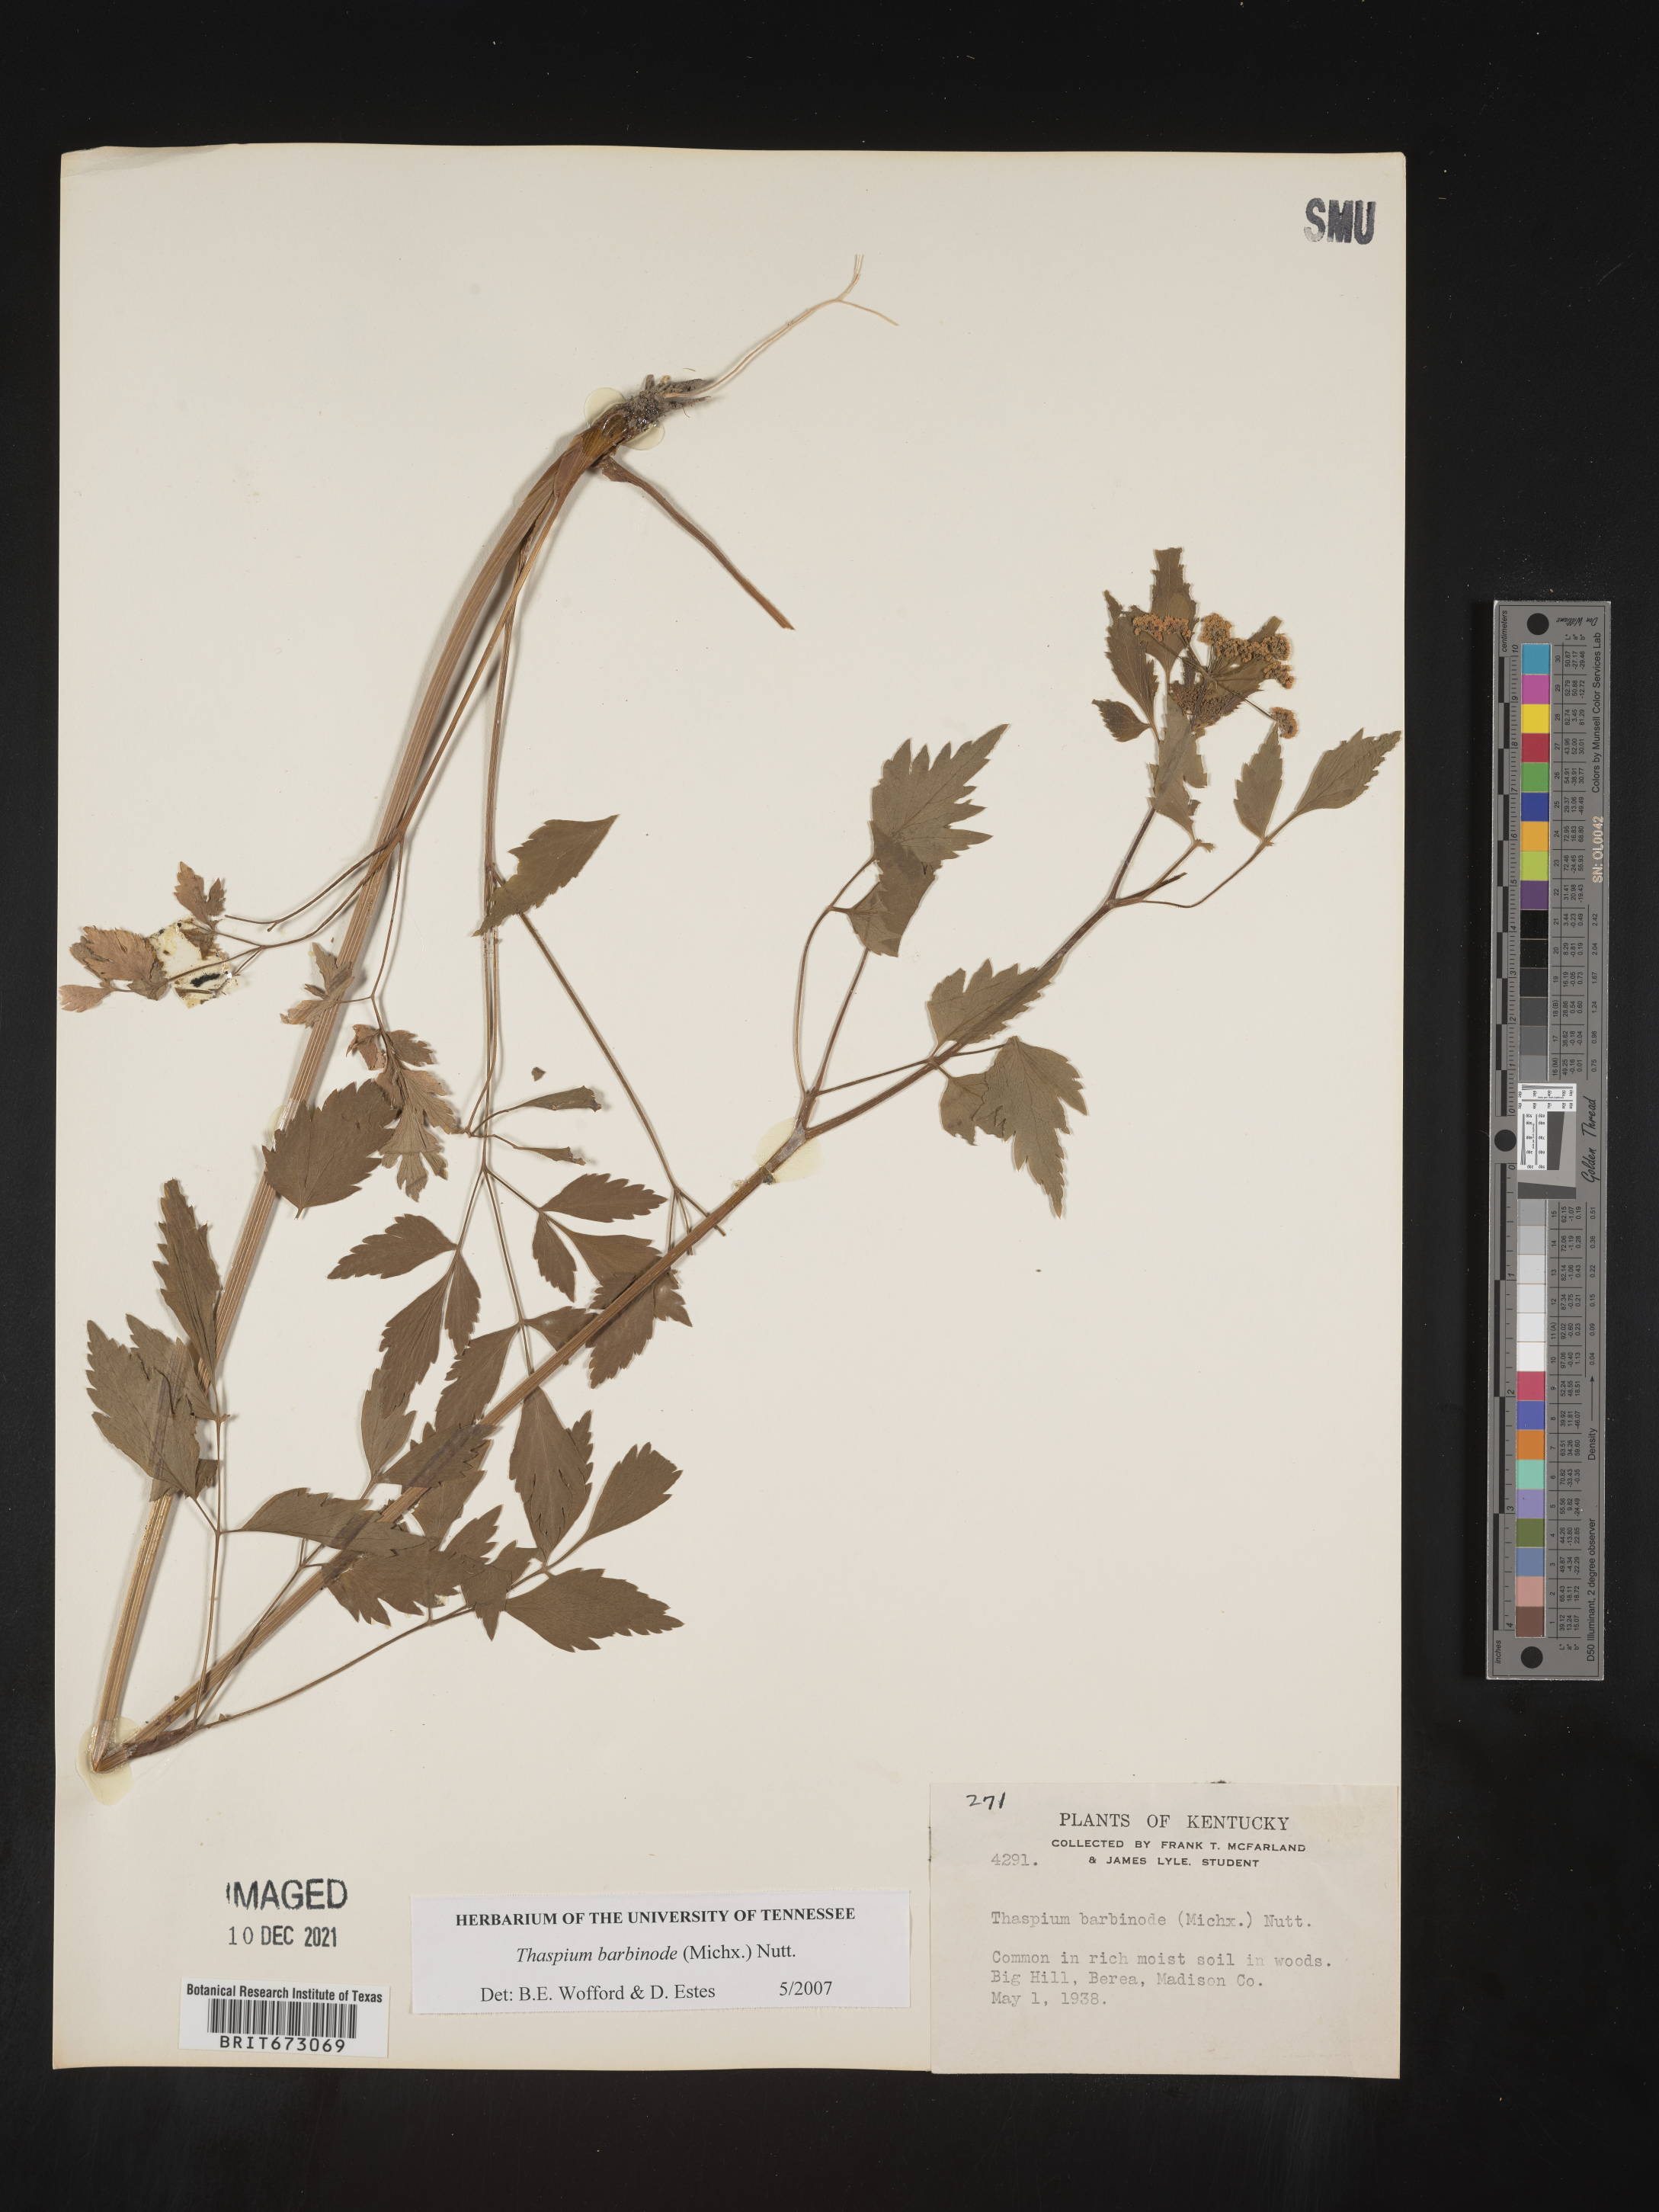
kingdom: Plantae
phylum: Tracheophyta
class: Magnoliopsida
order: Apiales
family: Apiaceae
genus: Thaspium
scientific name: Thaspium barbinode
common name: Bearded meadow-parsnip
